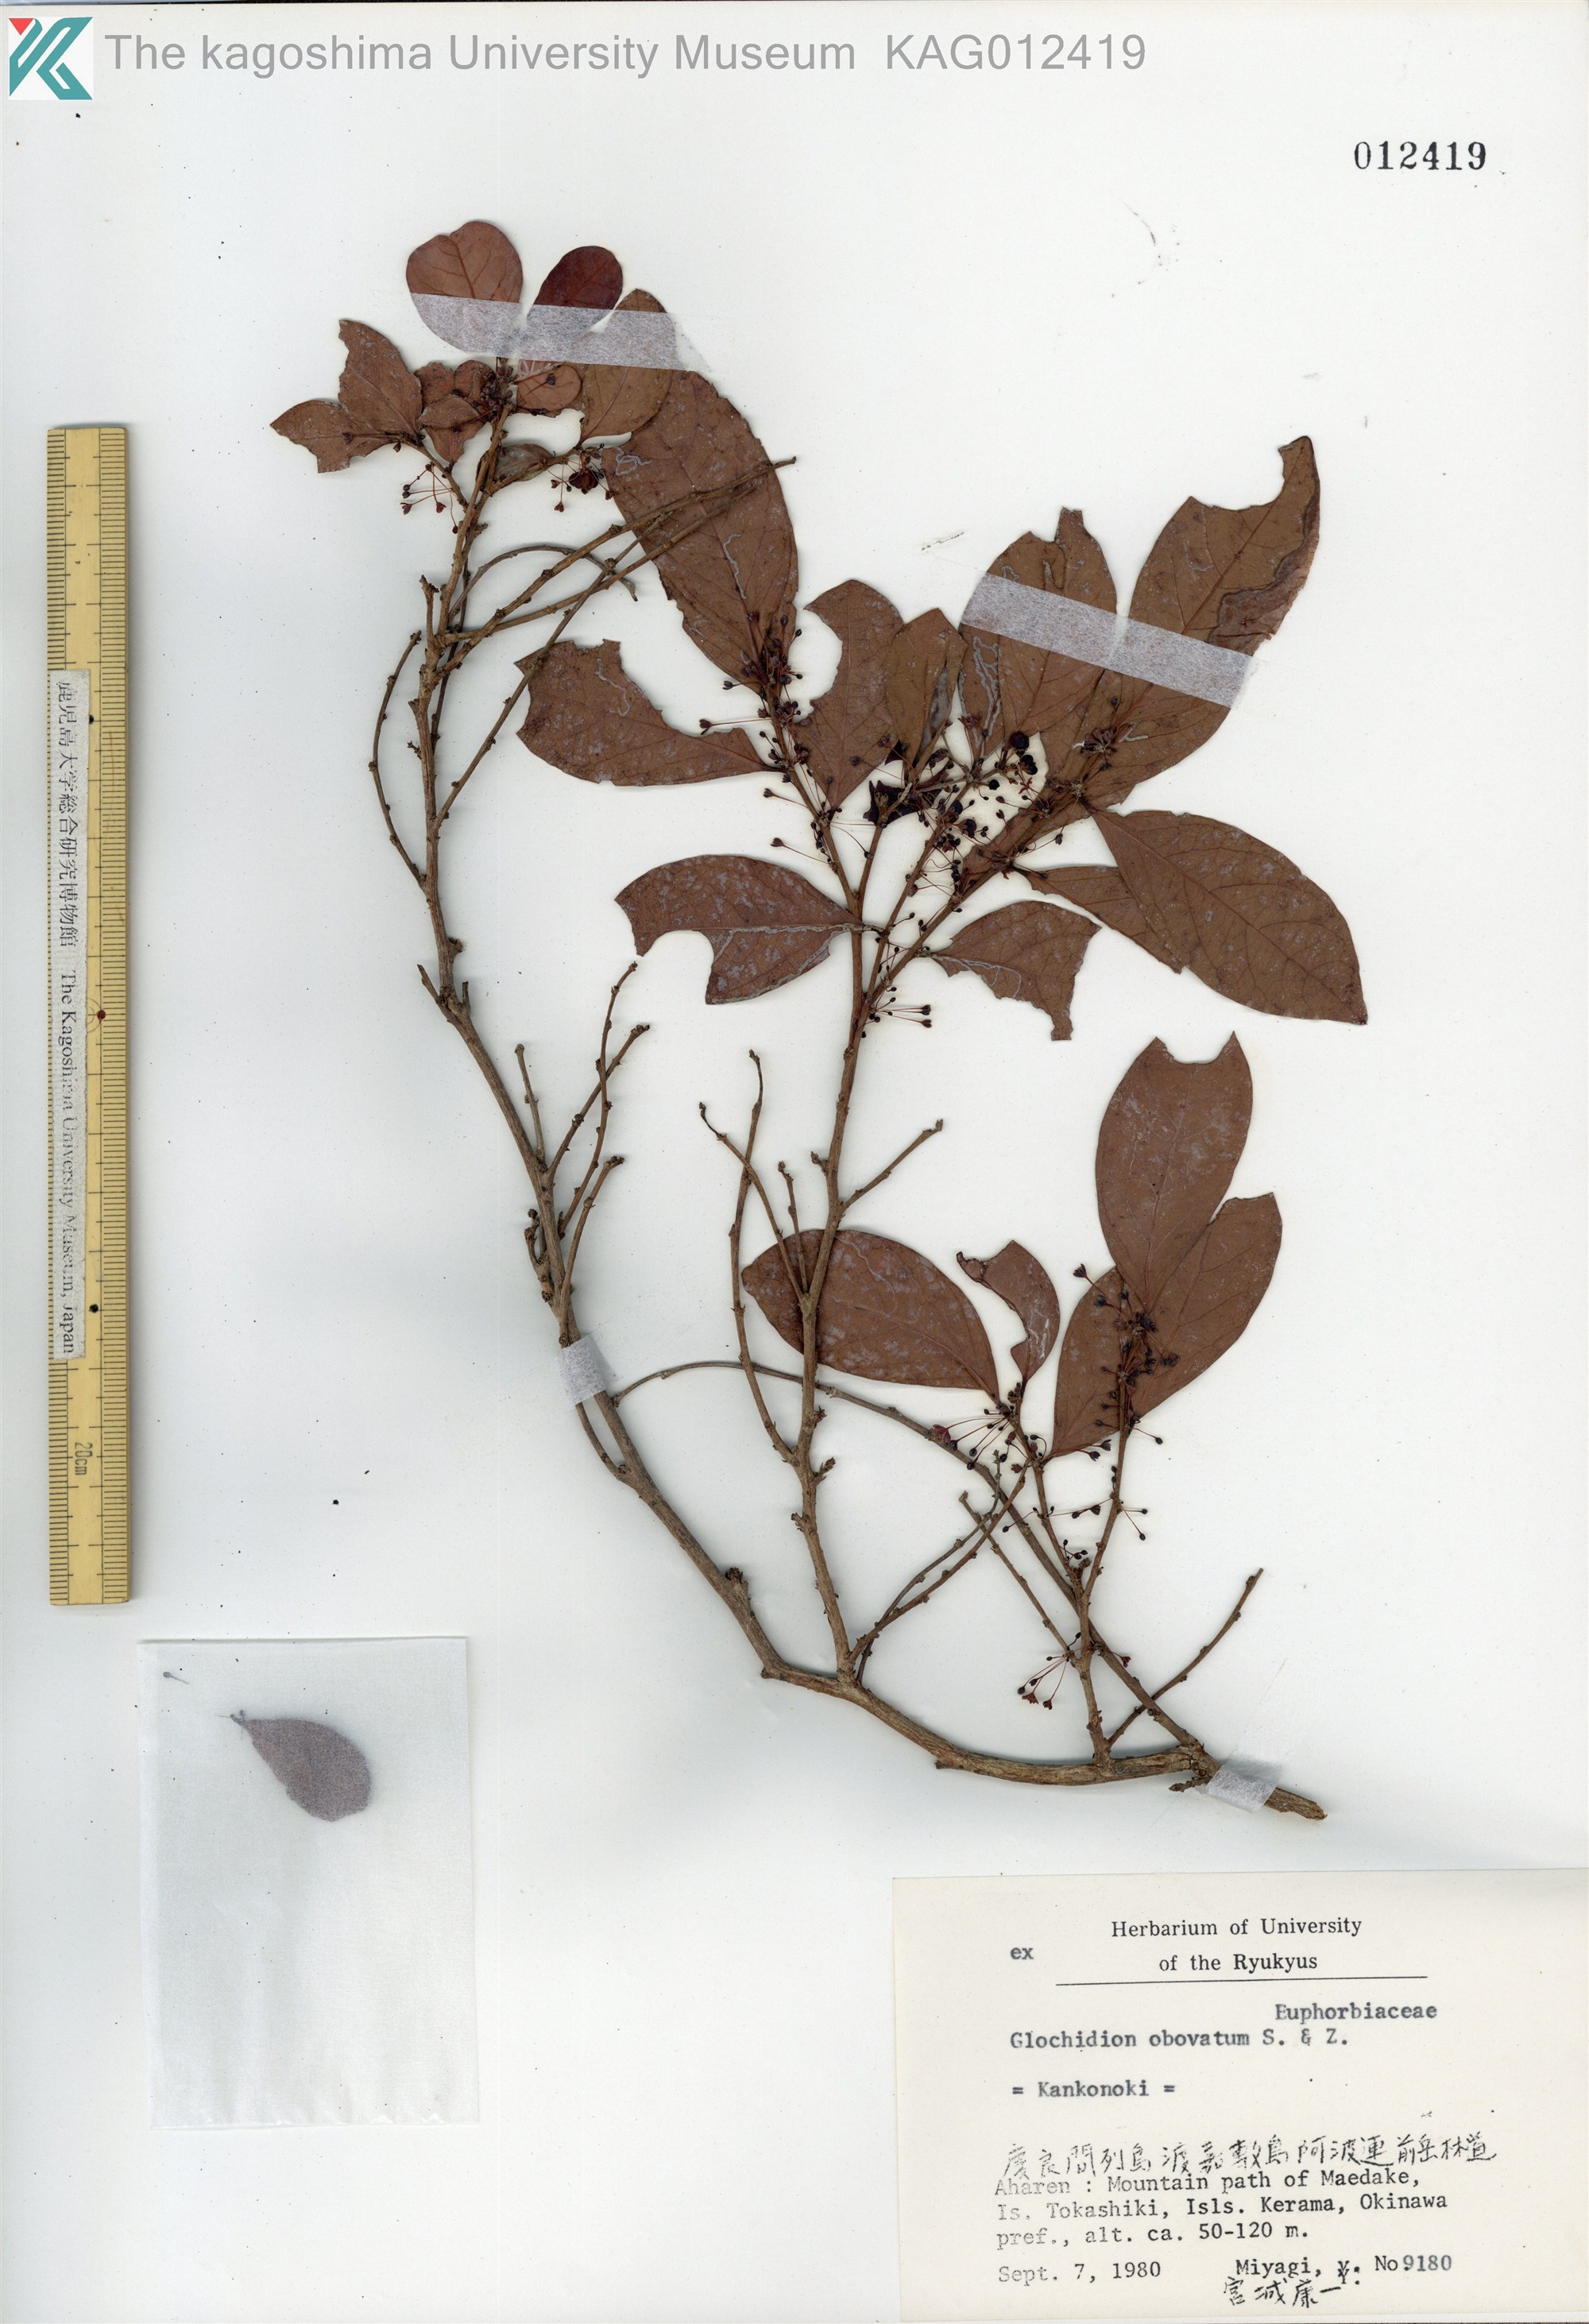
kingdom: Plantae
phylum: Tracheophyta
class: Magnoliopsida
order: Malpighiales
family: Phyllanthaceae
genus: Glochidion
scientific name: Glochidion obovatum
